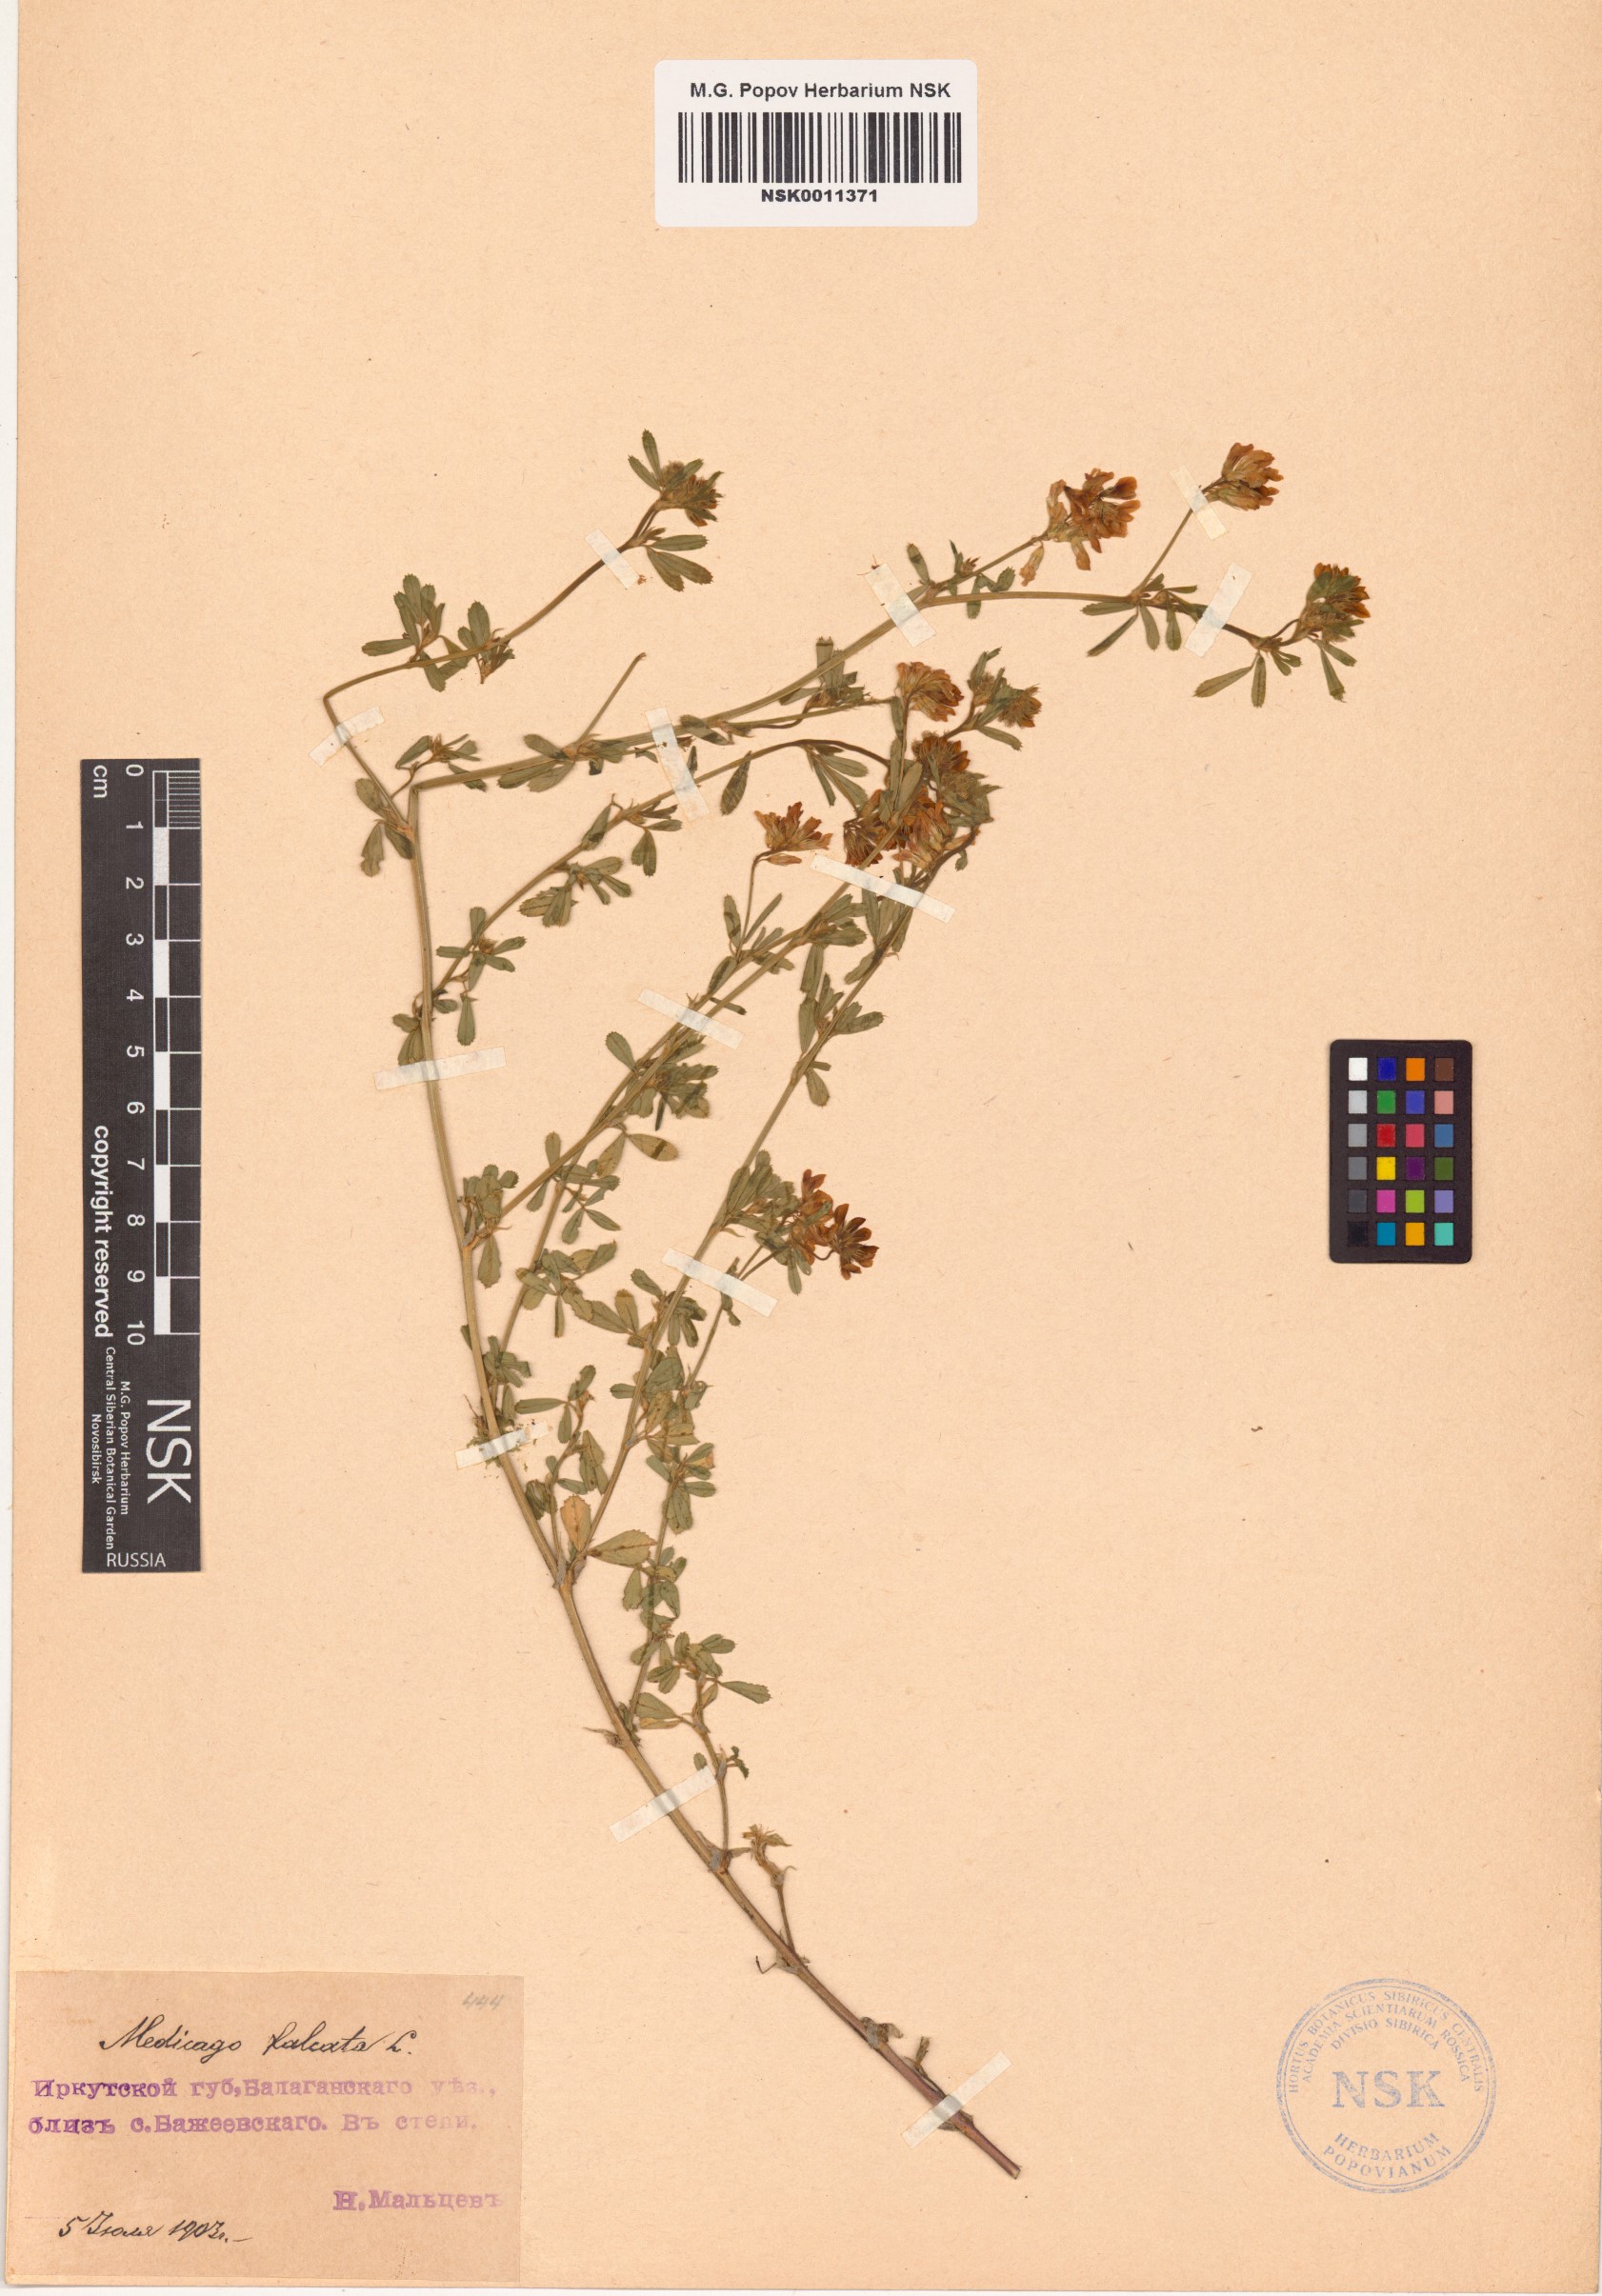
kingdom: Plantae
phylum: Tracheophyta
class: Magnoliopsida
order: Fabales
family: Fabaceae
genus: Medicago
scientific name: Medicago falcata
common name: Sickle medick
